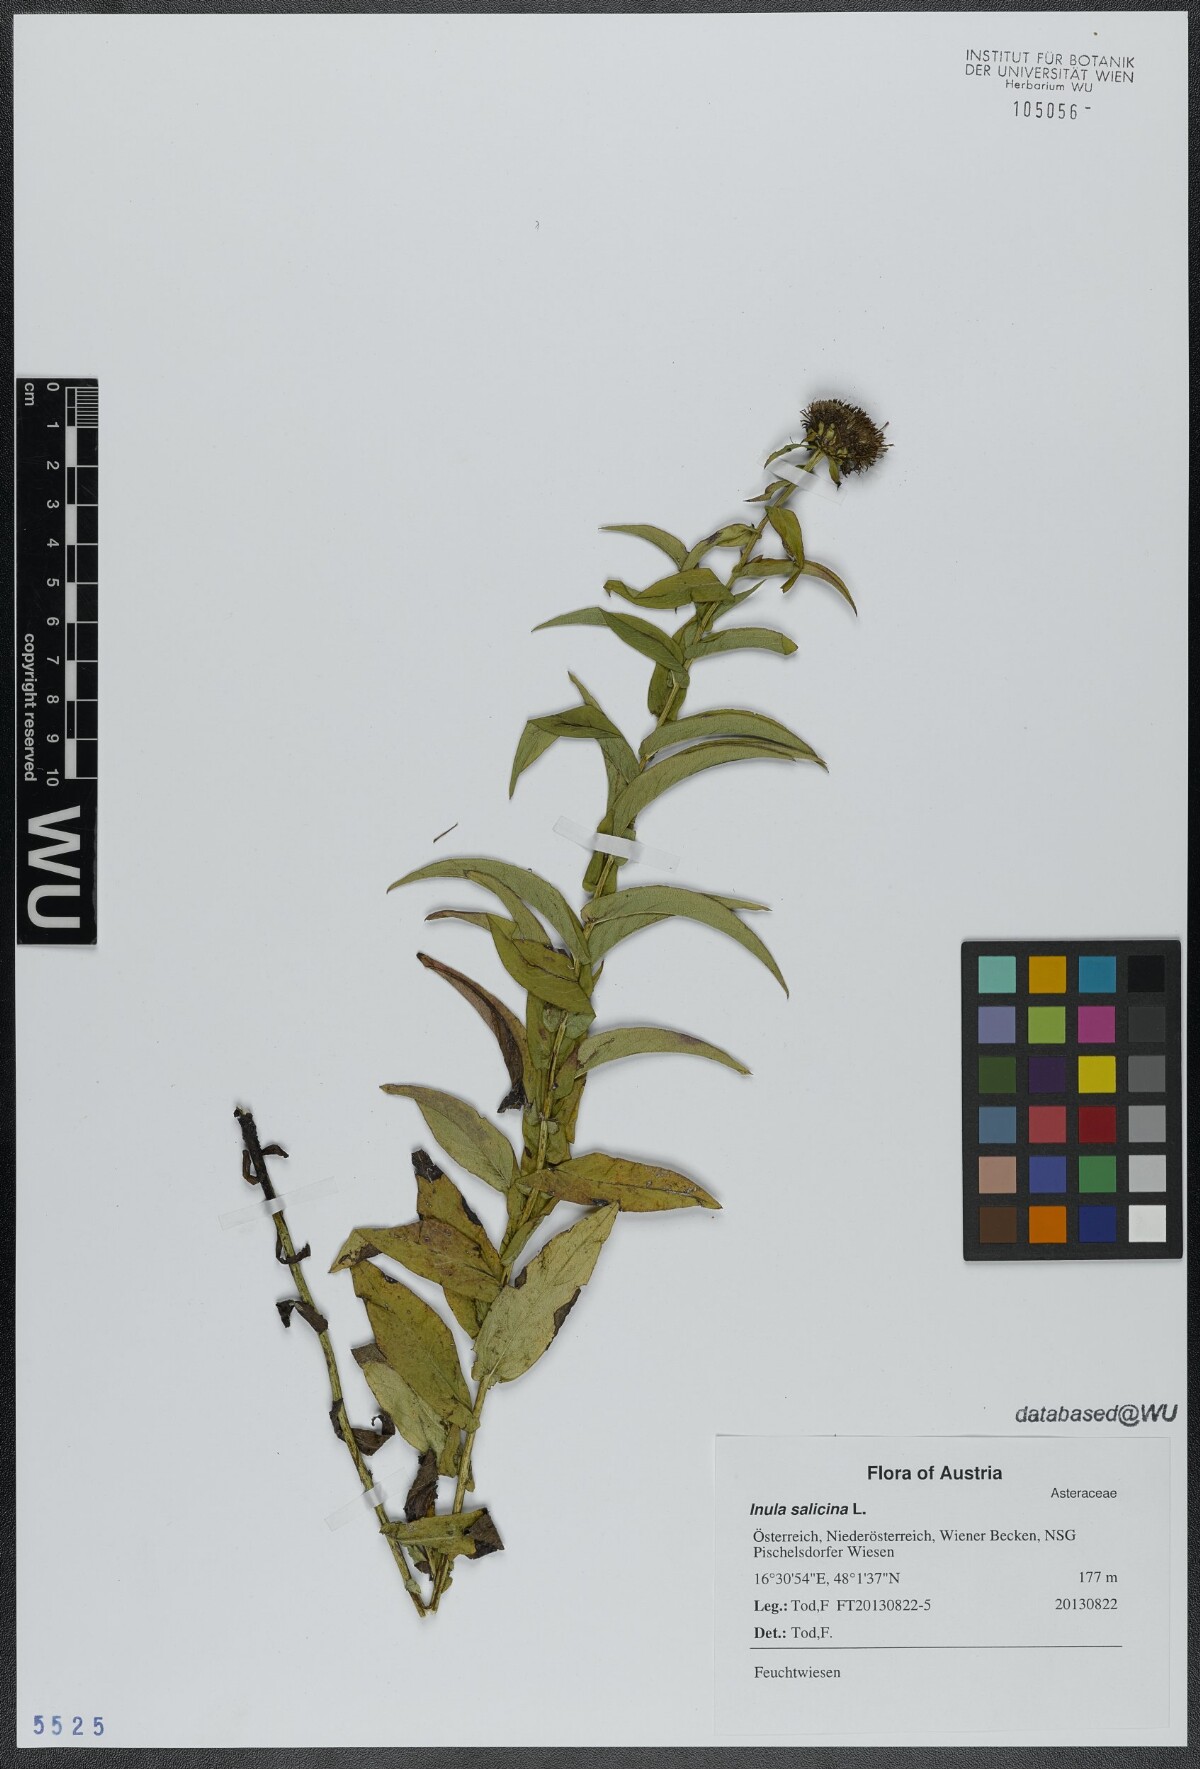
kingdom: Plantae
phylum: Tracheophyta
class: Magnoliopsida
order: Asterales
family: Asteraceae
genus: Pentanema
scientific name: Pentanema salicinum
